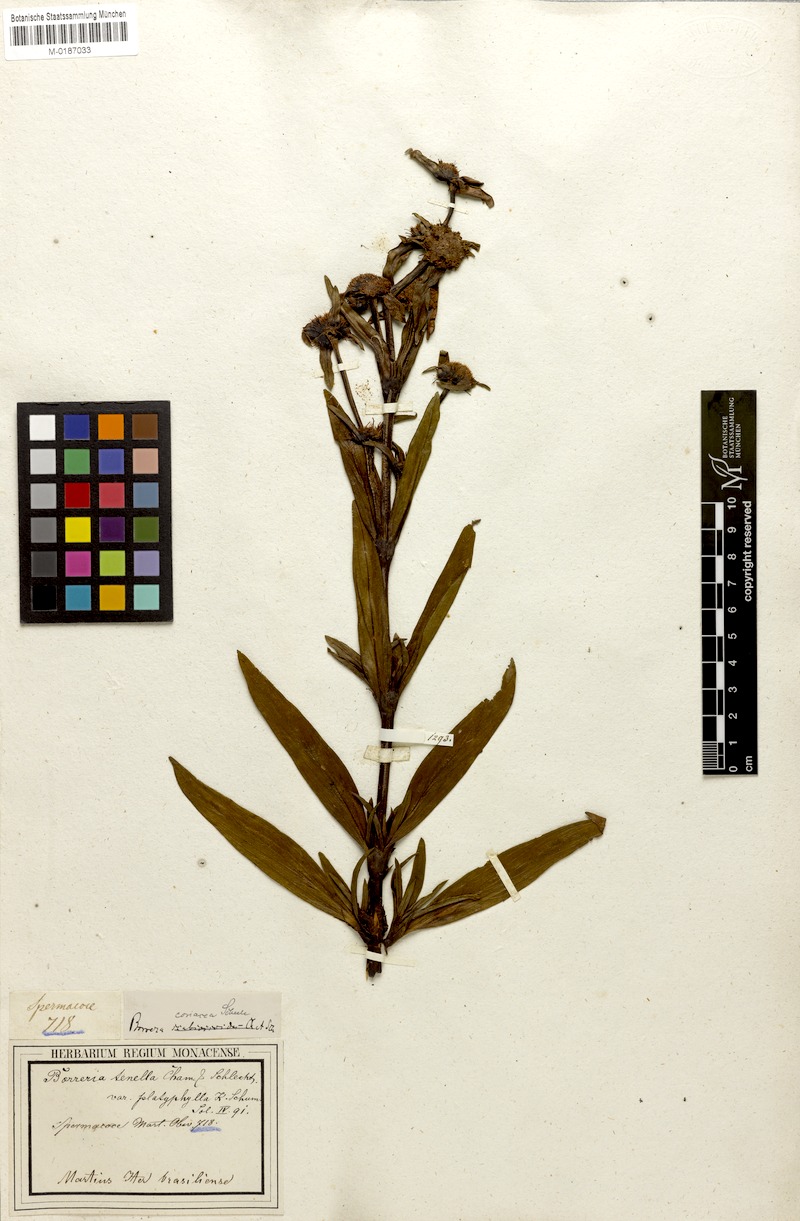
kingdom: Plantae
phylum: Tracheophyta
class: Magnoliopsida
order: Gentianales
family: Rubiaceae
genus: Spermacoce
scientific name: Spermacoce orinocensis
